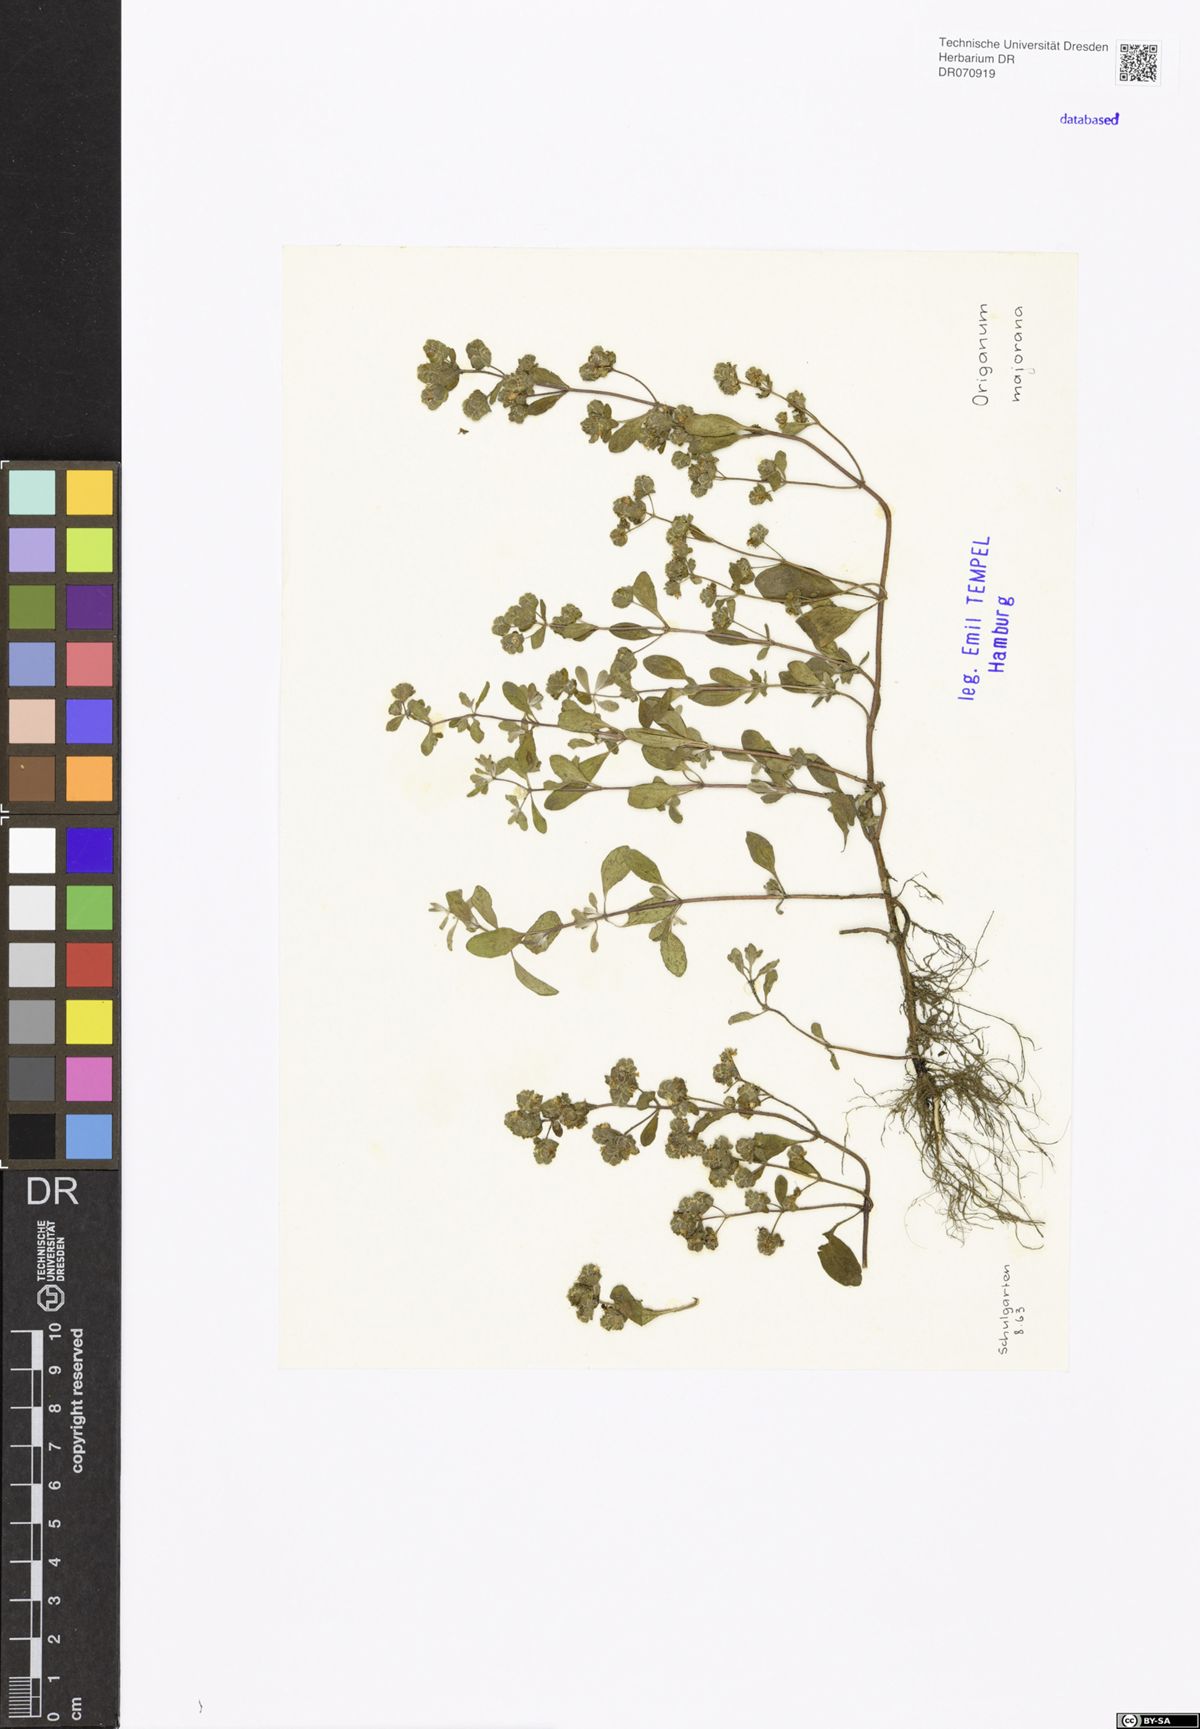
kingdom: Plantae
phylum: Tracheophyta
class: Magnoliopsida
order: Lamiales
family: Lamiaceae
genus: Origanum
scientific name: Origanum majorana
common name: Sweet marjoram
